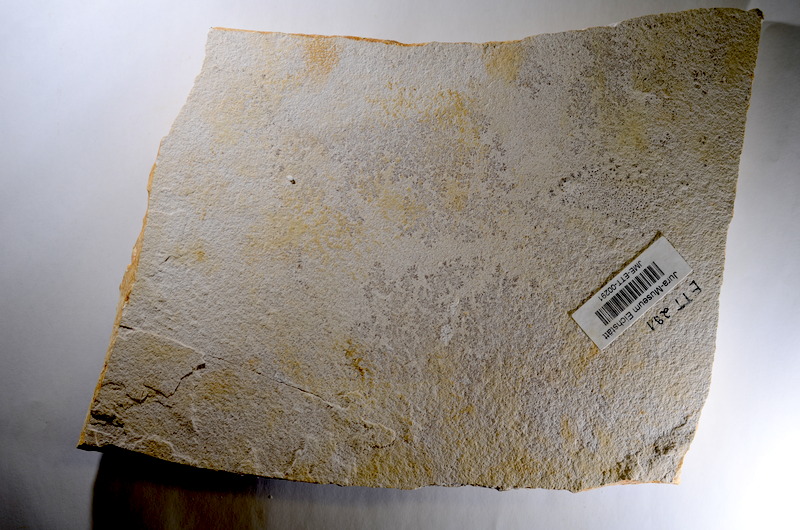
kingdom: Animalia
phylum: Chordata
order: Salmoniformes
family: Orthogonikleithridae
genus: Orthogonikleithrus
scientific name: Orthogonikleithrus hoelli
